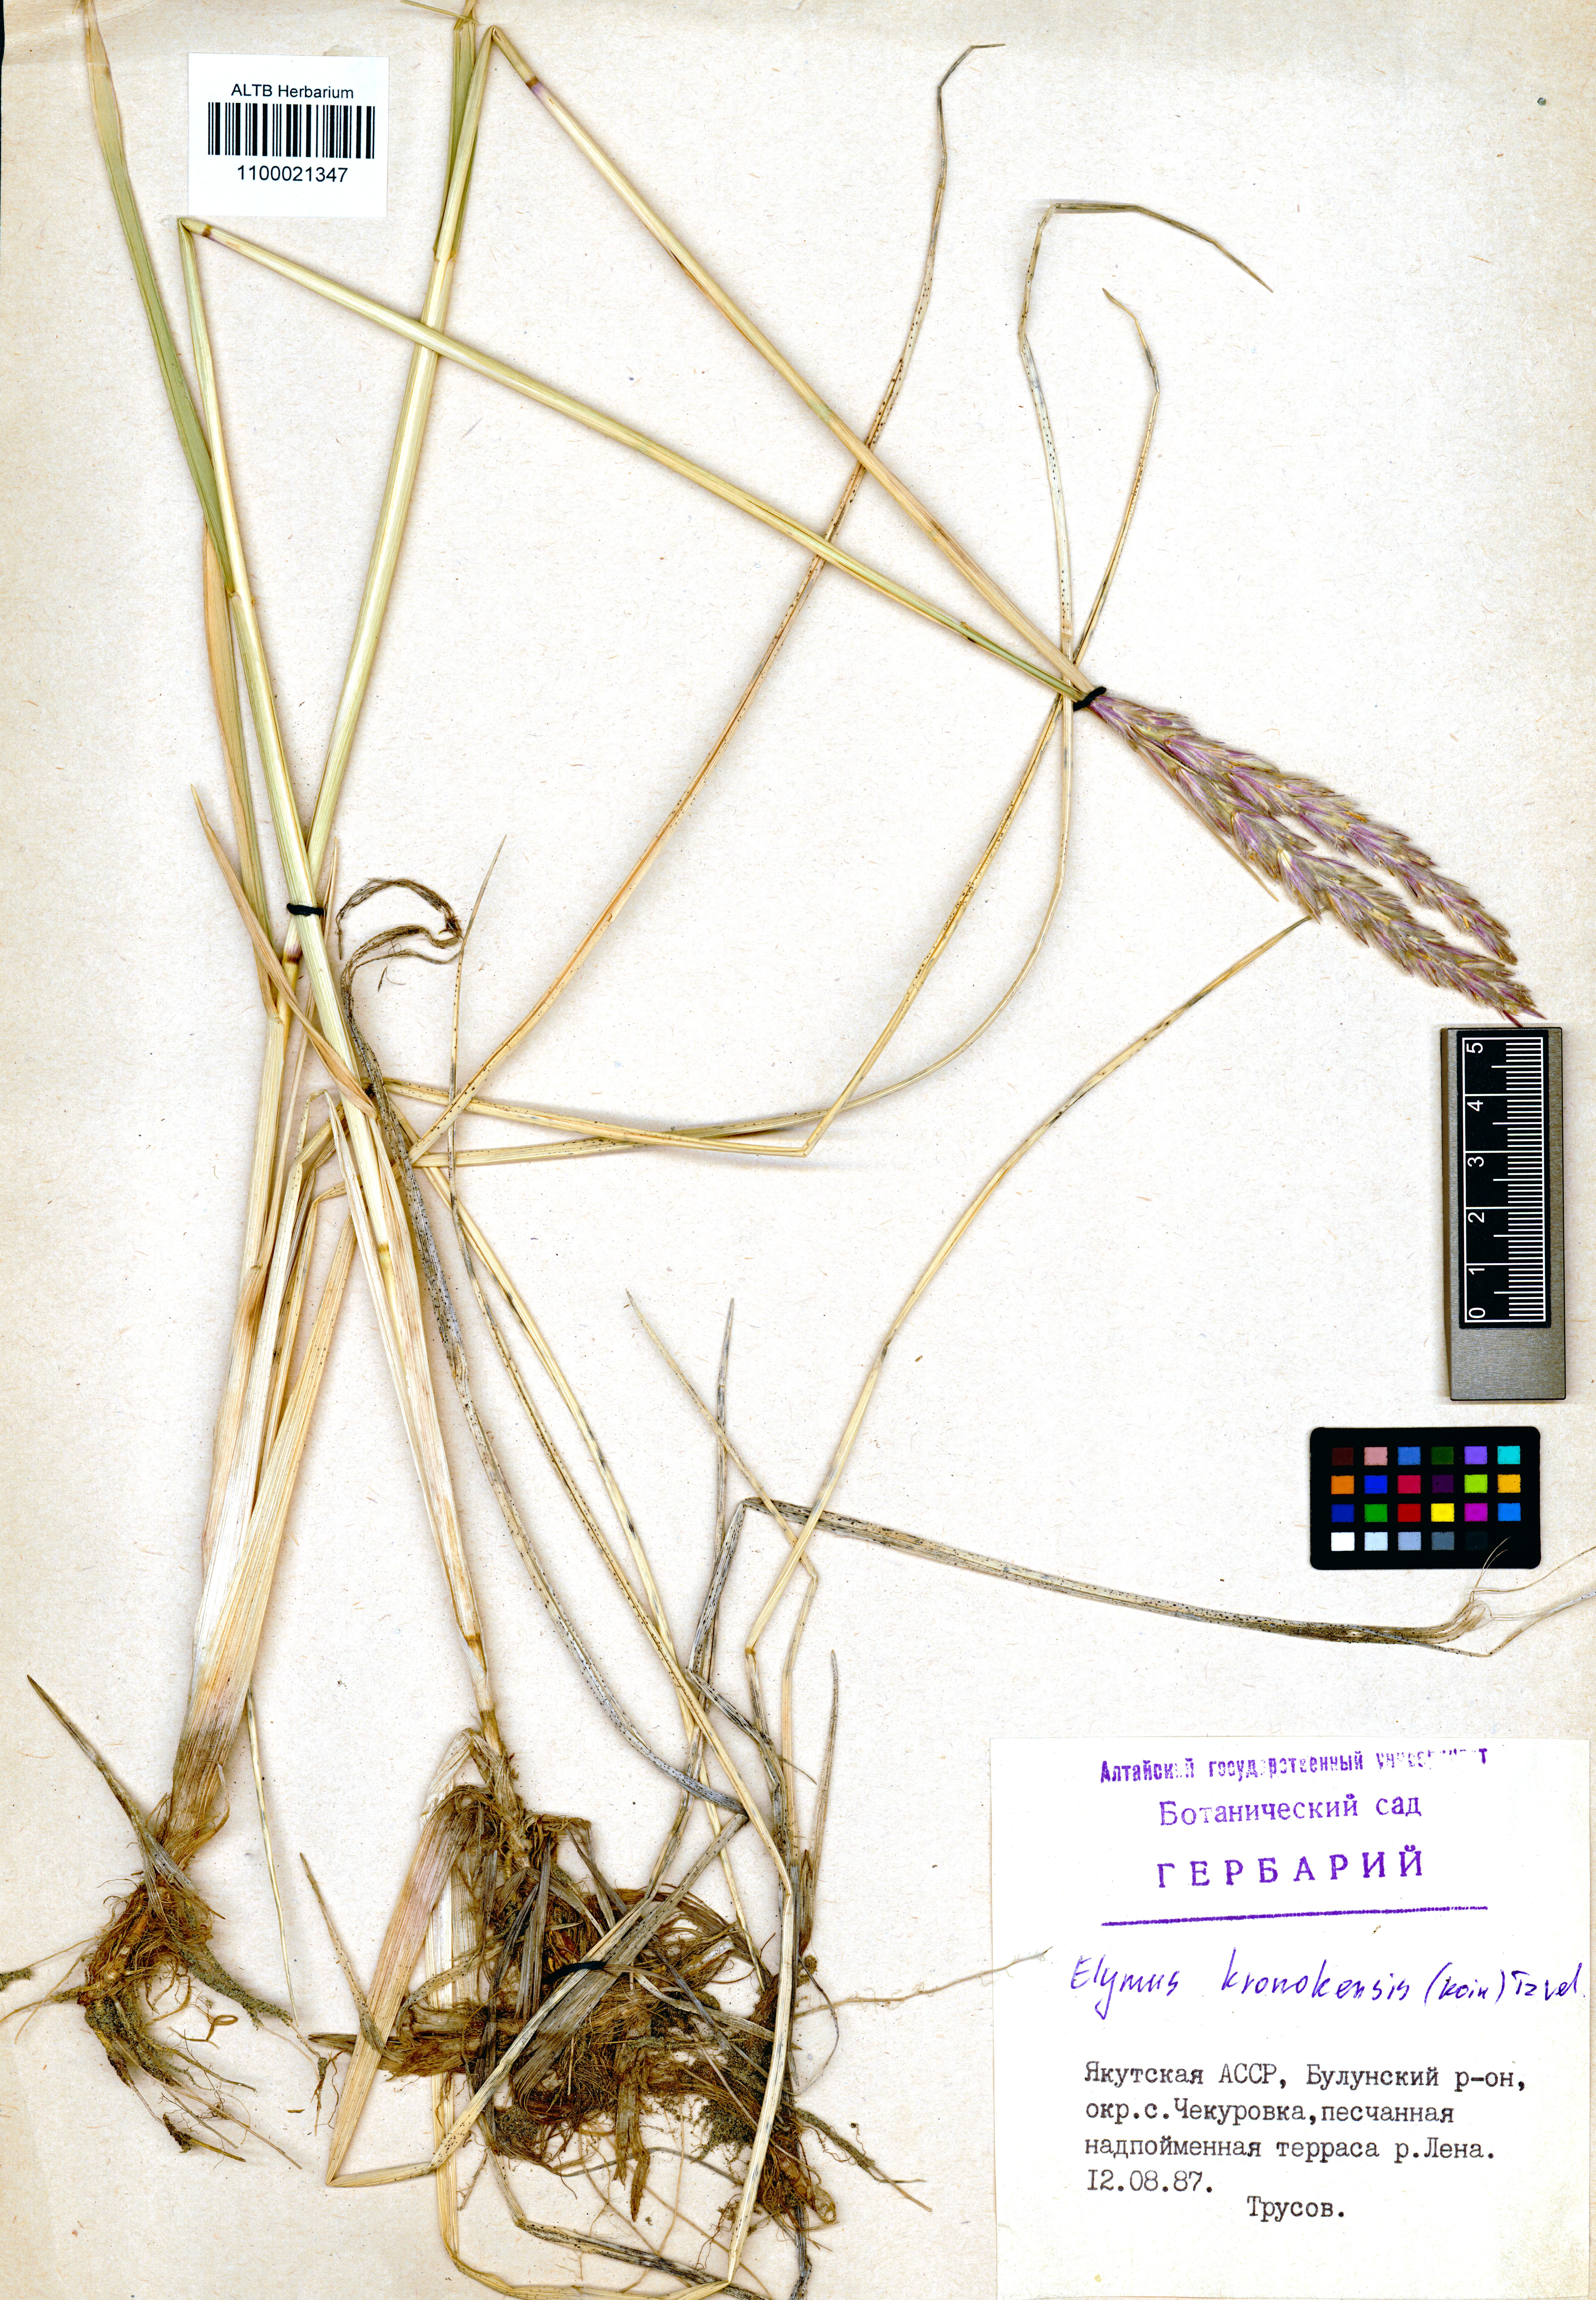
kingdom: Plantae
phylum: Tracheophyta
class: Liliopsida
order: Poales
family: Poaceae
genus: Elymus
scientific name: Elymus macrourus
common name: Northern wheatgrass
